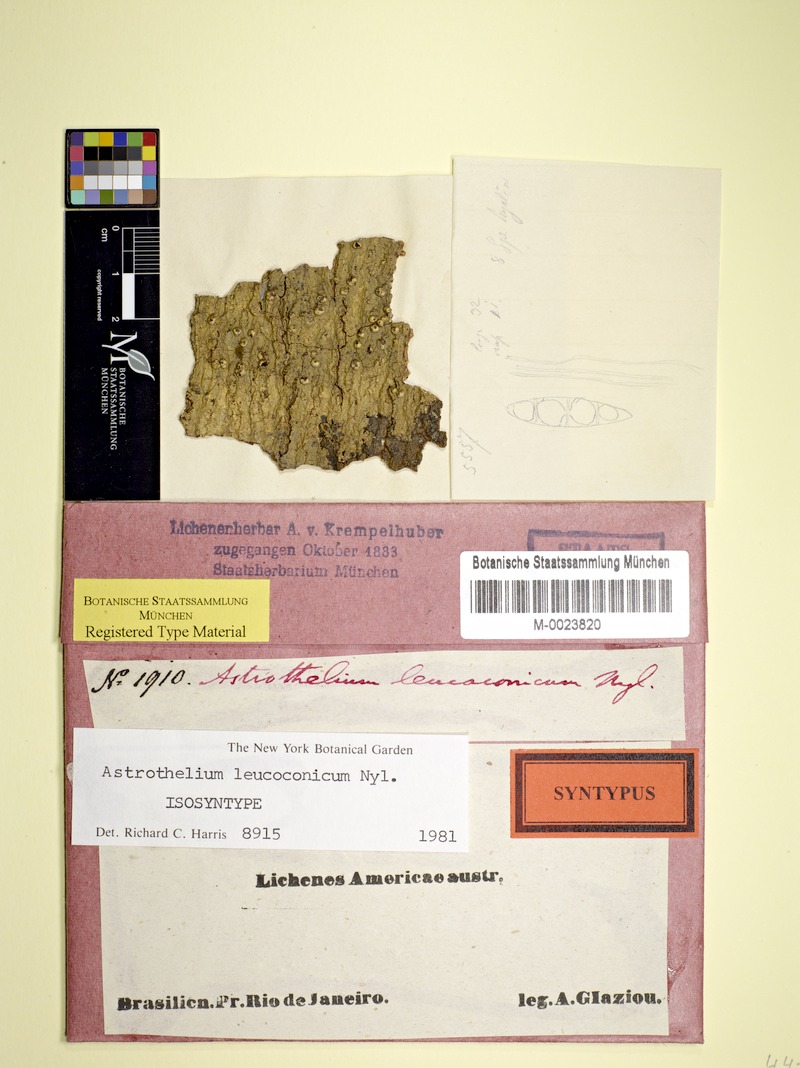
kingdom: Fungi
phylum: Ascomycota
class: Dothideomycetes
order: Trypetheliales
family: Trypetheliaceae
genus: Astrothelium
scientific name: Astrothelium leucoconicum
